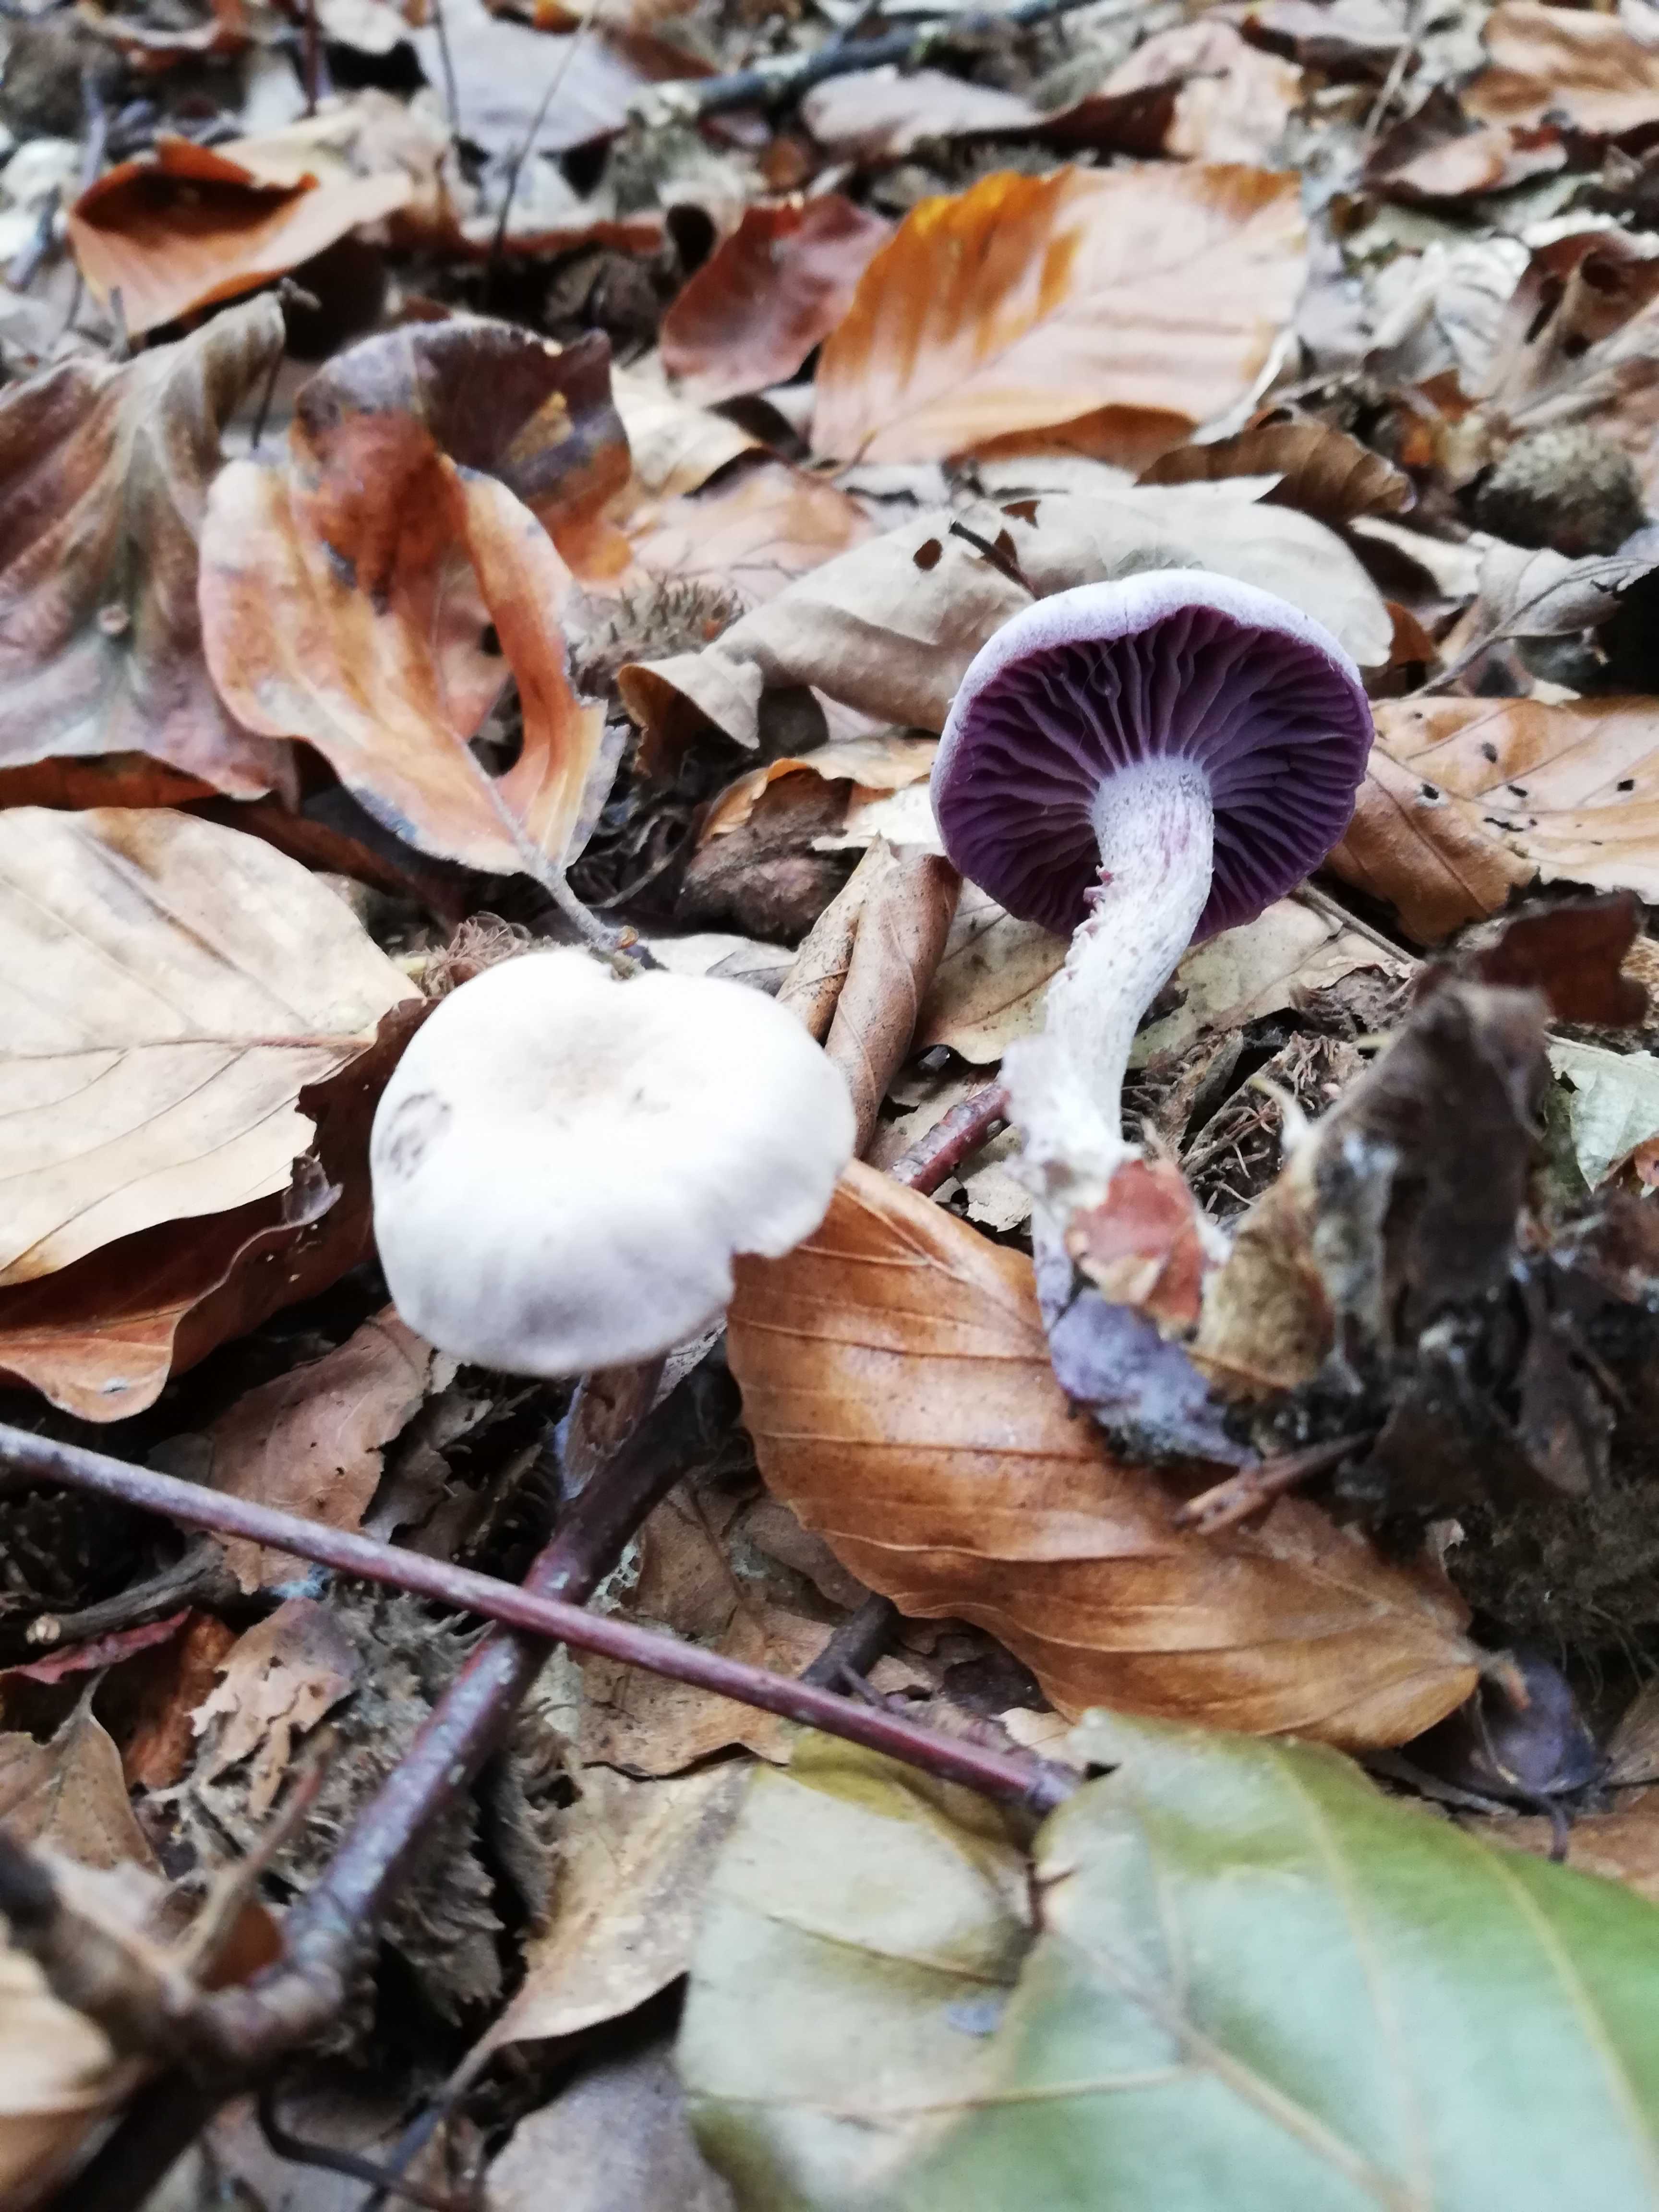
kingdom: Fungi
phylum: Basidiomycota
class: Agaricomycetes
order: Agaricales
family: Hydnangiaceae
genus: Laccaria
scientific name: Laccaria amethystina
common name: violet ametysthat
